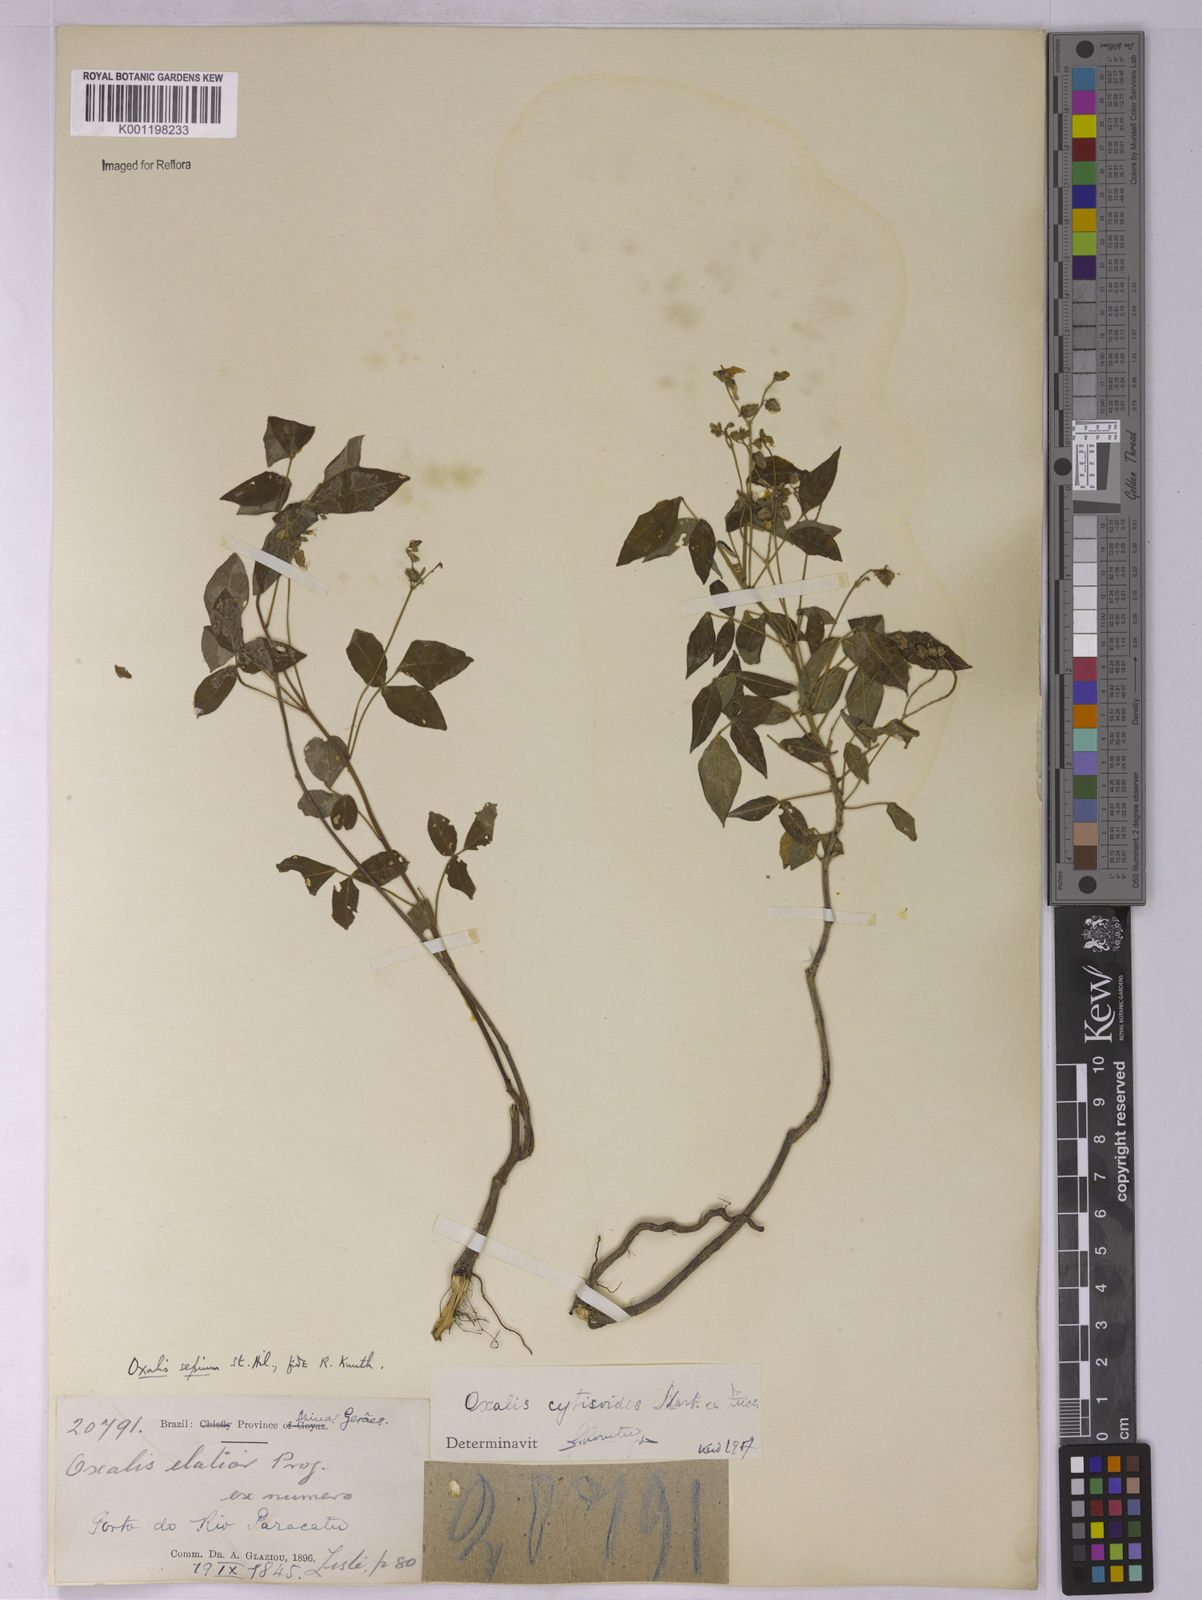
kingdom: Plantae
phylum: Tracheophyta
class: Magnoliopsida
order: Oxalidales
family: Oxalidaceae
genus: Oxalis
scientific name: Oxalis cytisoides
